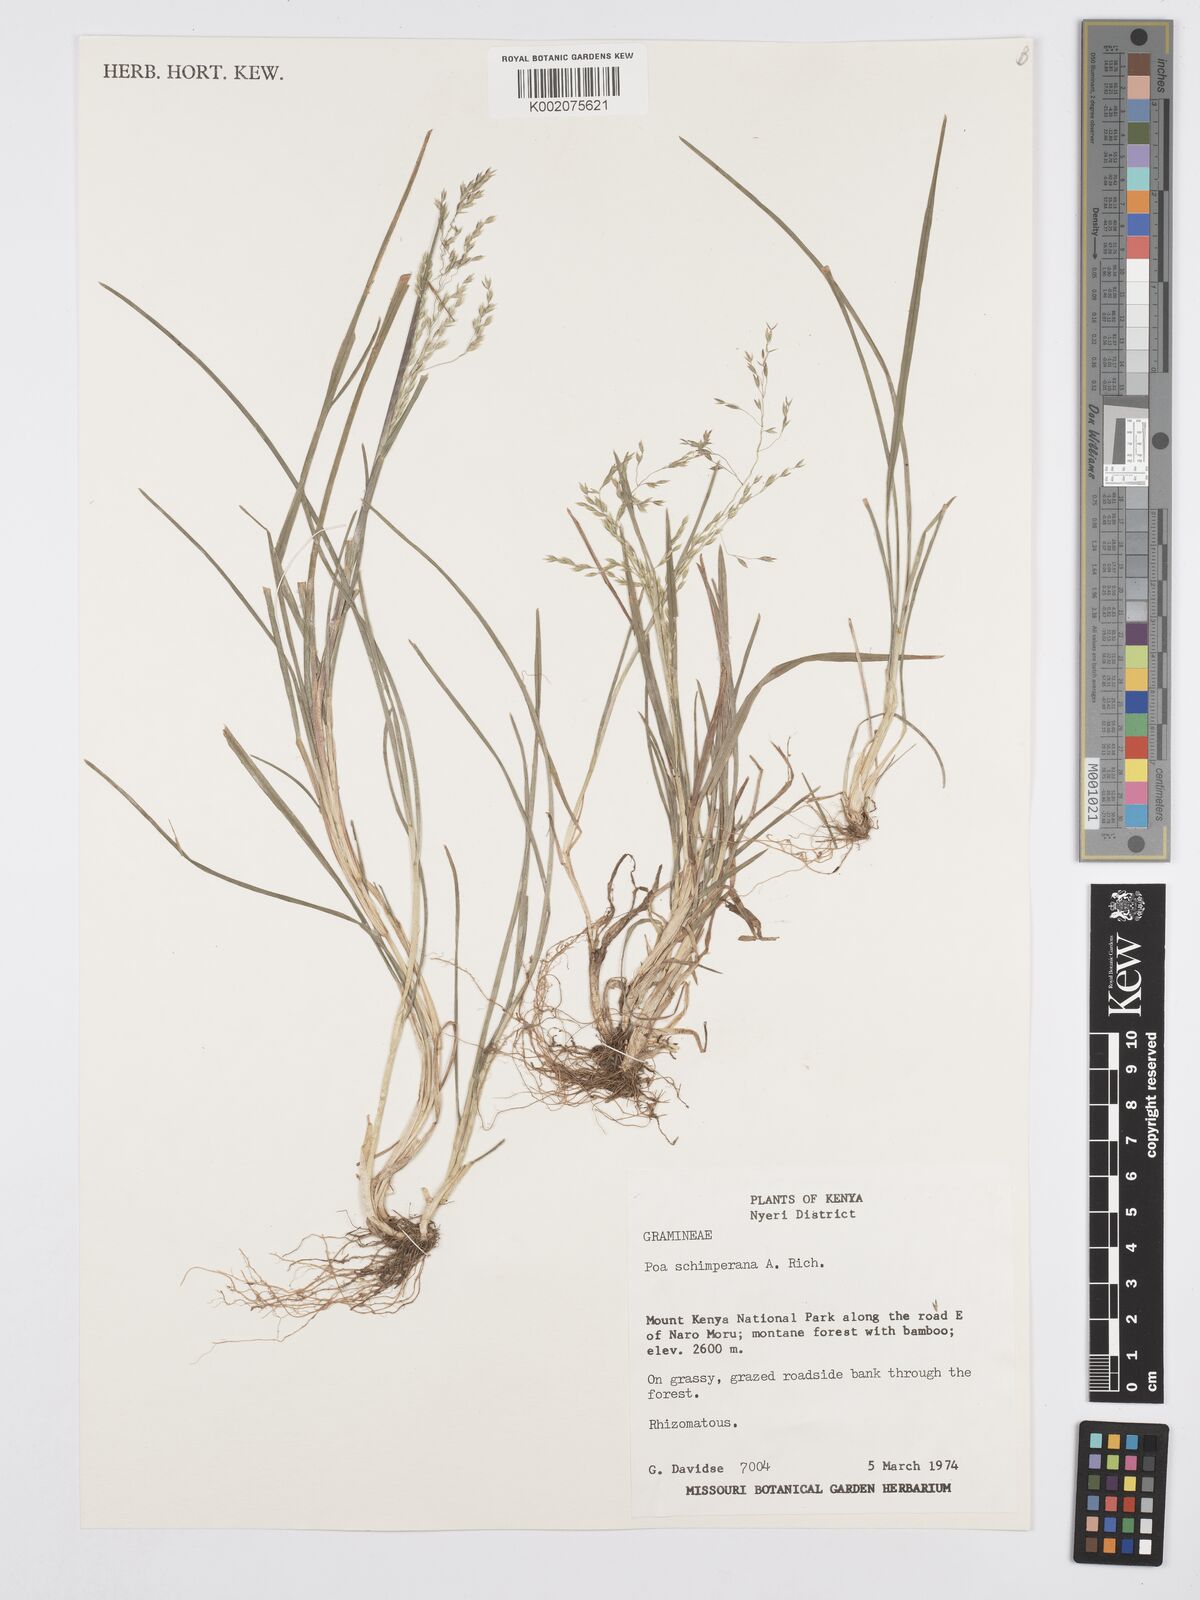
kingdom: Plantae
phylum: Tracheophyta
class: Liliopsida
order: Poales
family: Poaceae
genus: Poa
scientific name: Poa schimperiana
